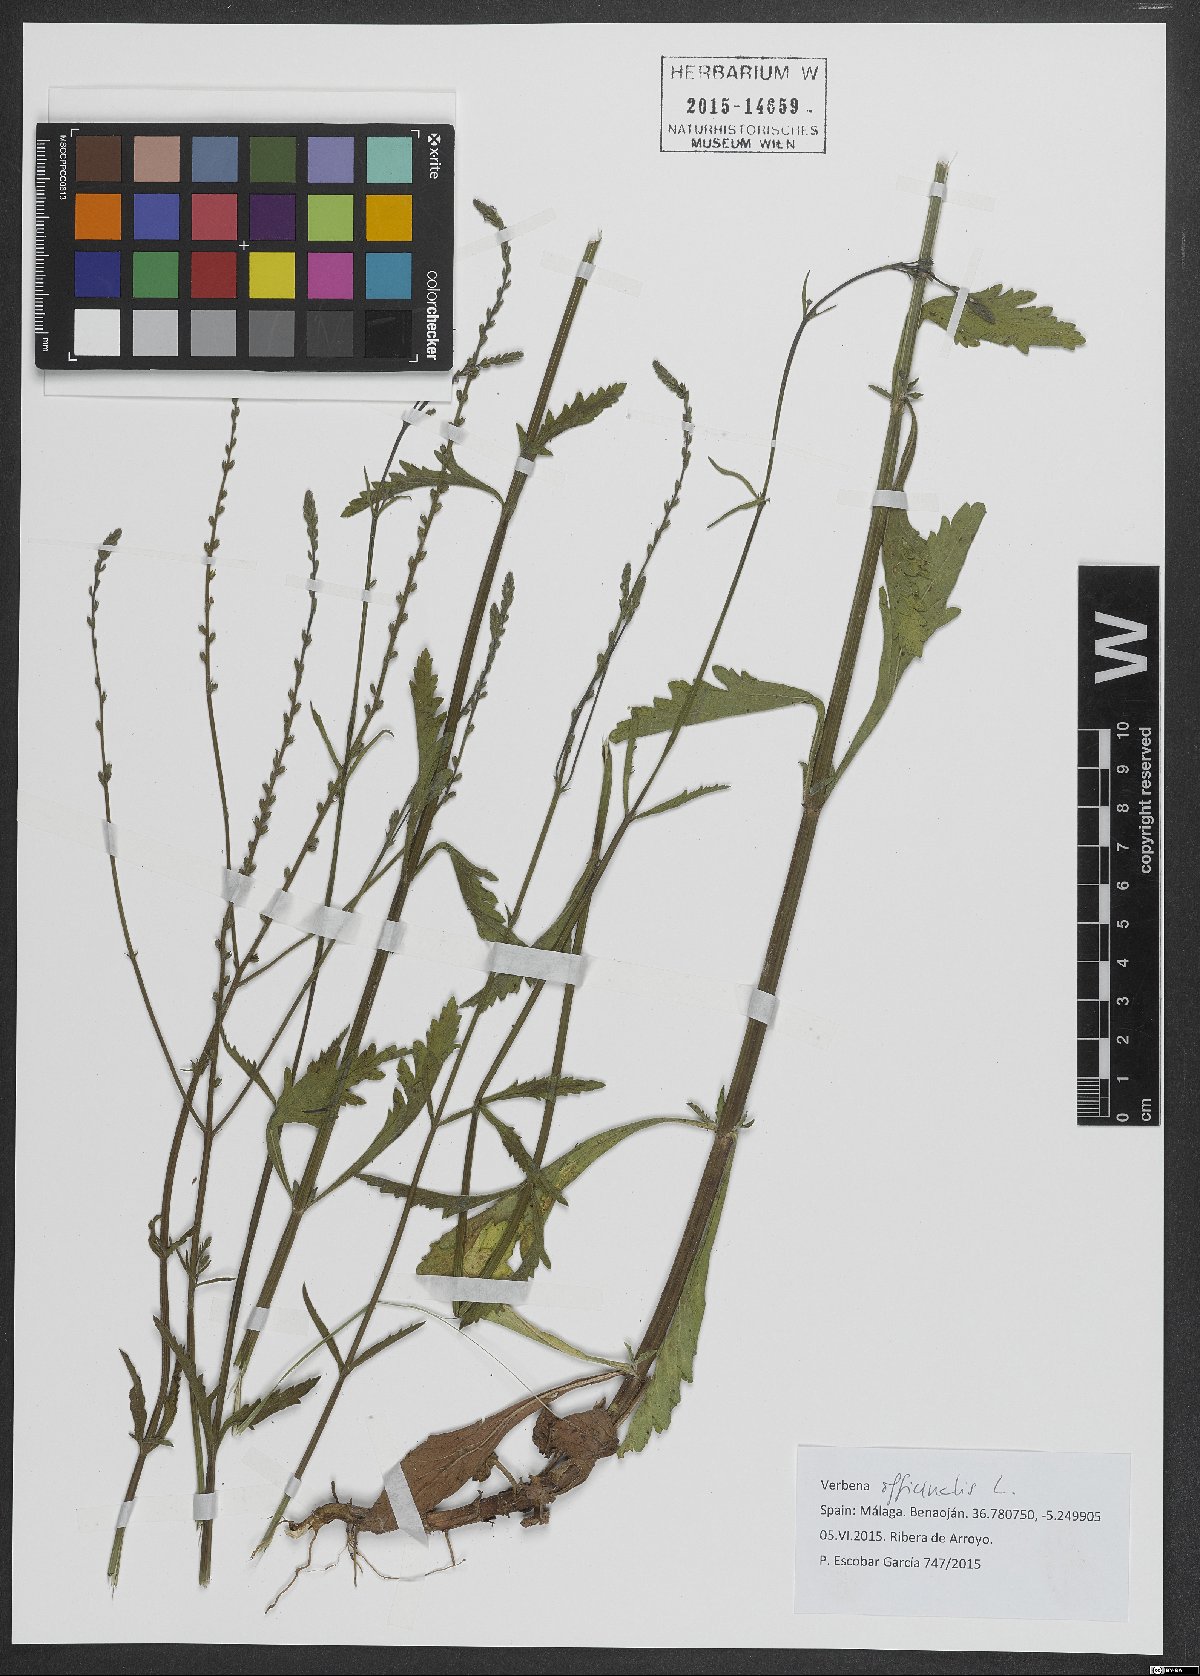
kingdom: Plantae
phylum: Tracheophyta
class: Magnoliopsida
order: Lamiales
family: Verbenaceae
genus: Verbena
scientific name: Verbena officinalis
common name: Vervain
